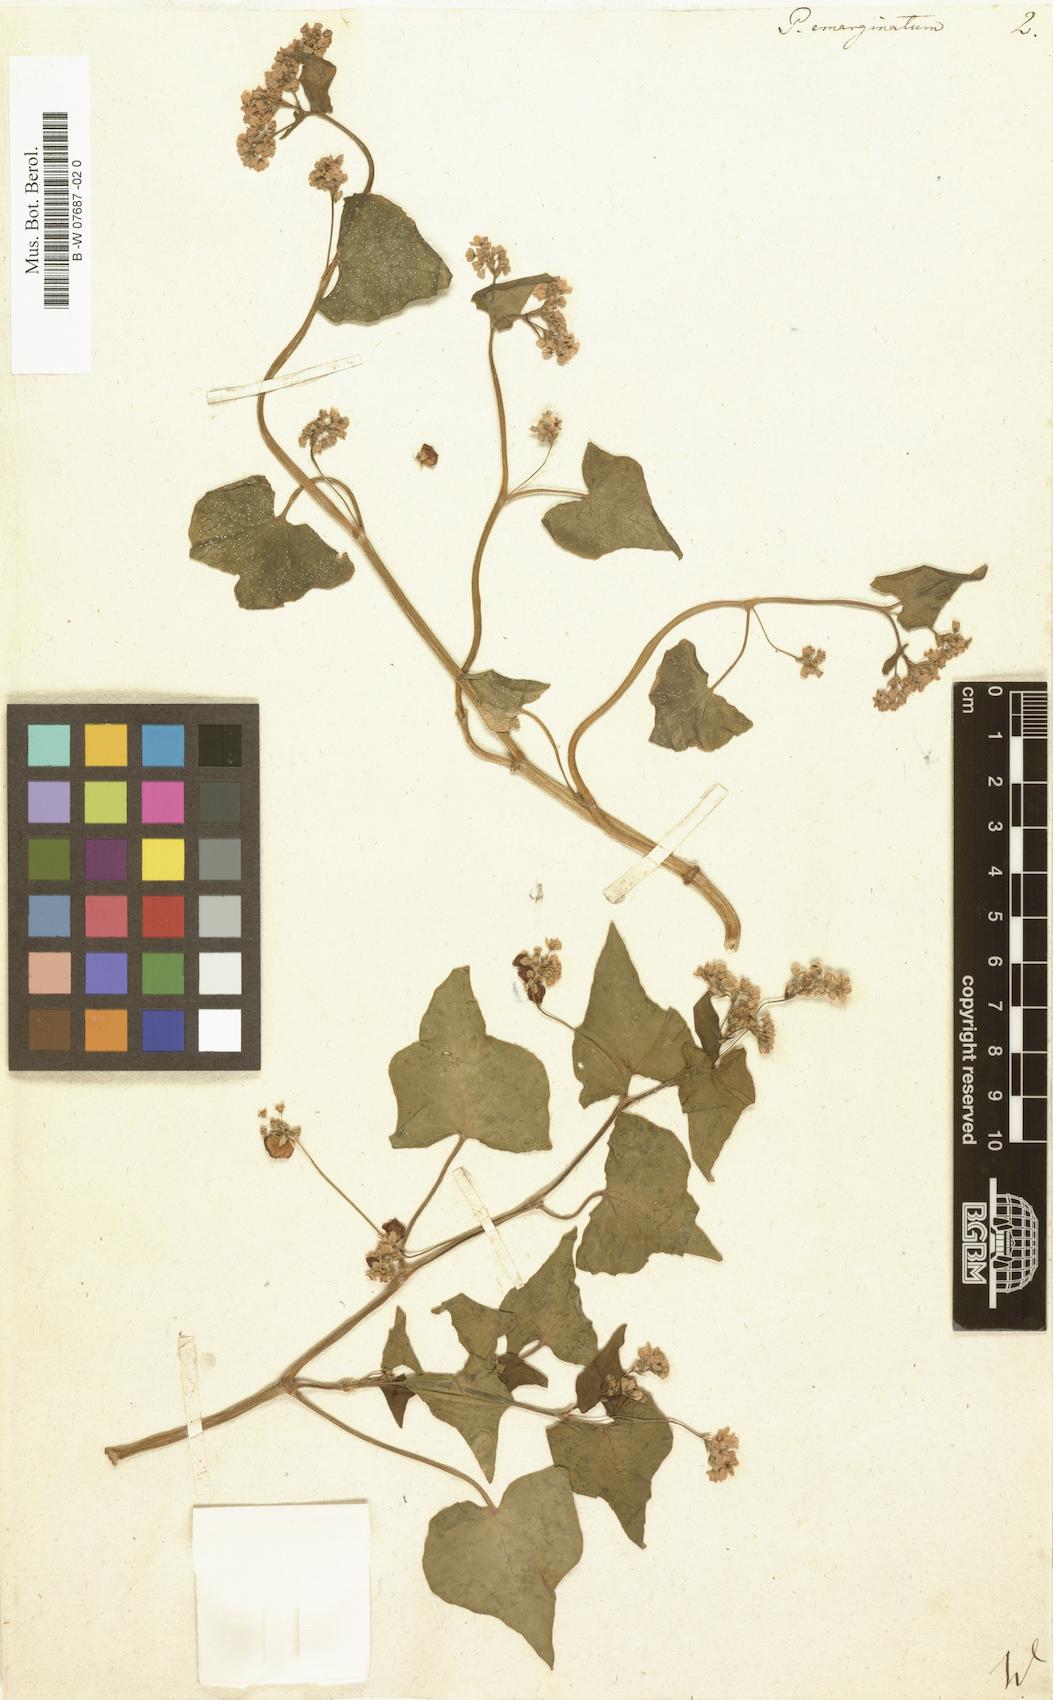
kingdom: Plantae
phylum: Tracheophyta
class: Magnoliopsida
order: Caryophyllales
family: Polygonaceae
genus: Fagopyrum
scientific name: Fagopyrum
